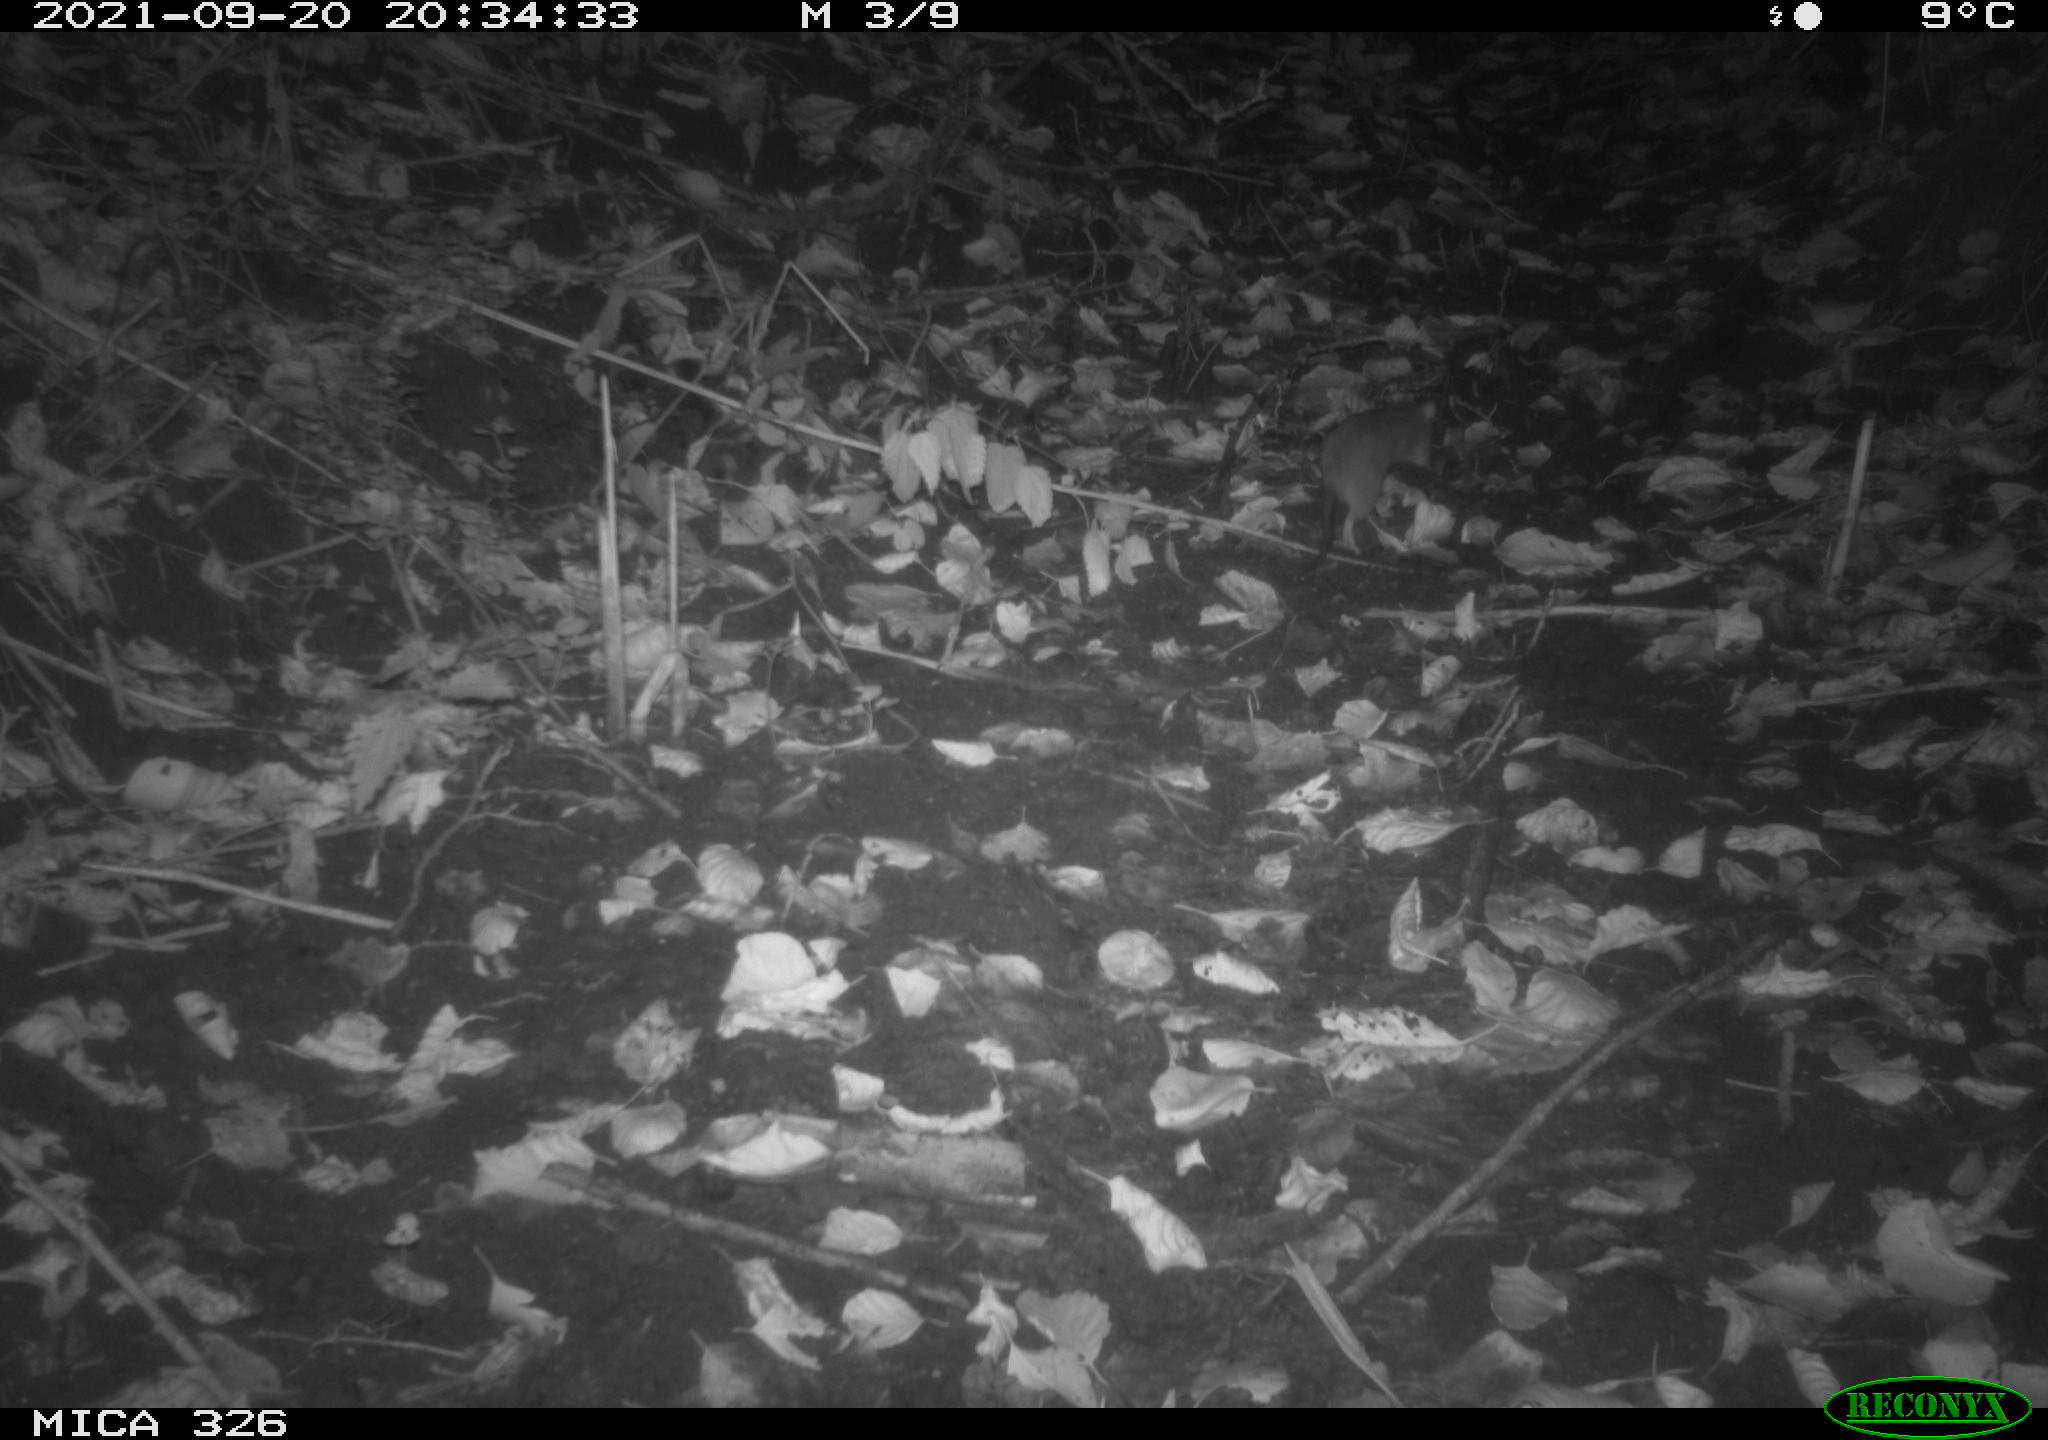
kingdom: Animalia
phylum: Chordata
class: Mammalia
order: Rodentia
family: Muridae
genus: Rattus
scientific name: Rattus norvegicus
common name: Brown rat
